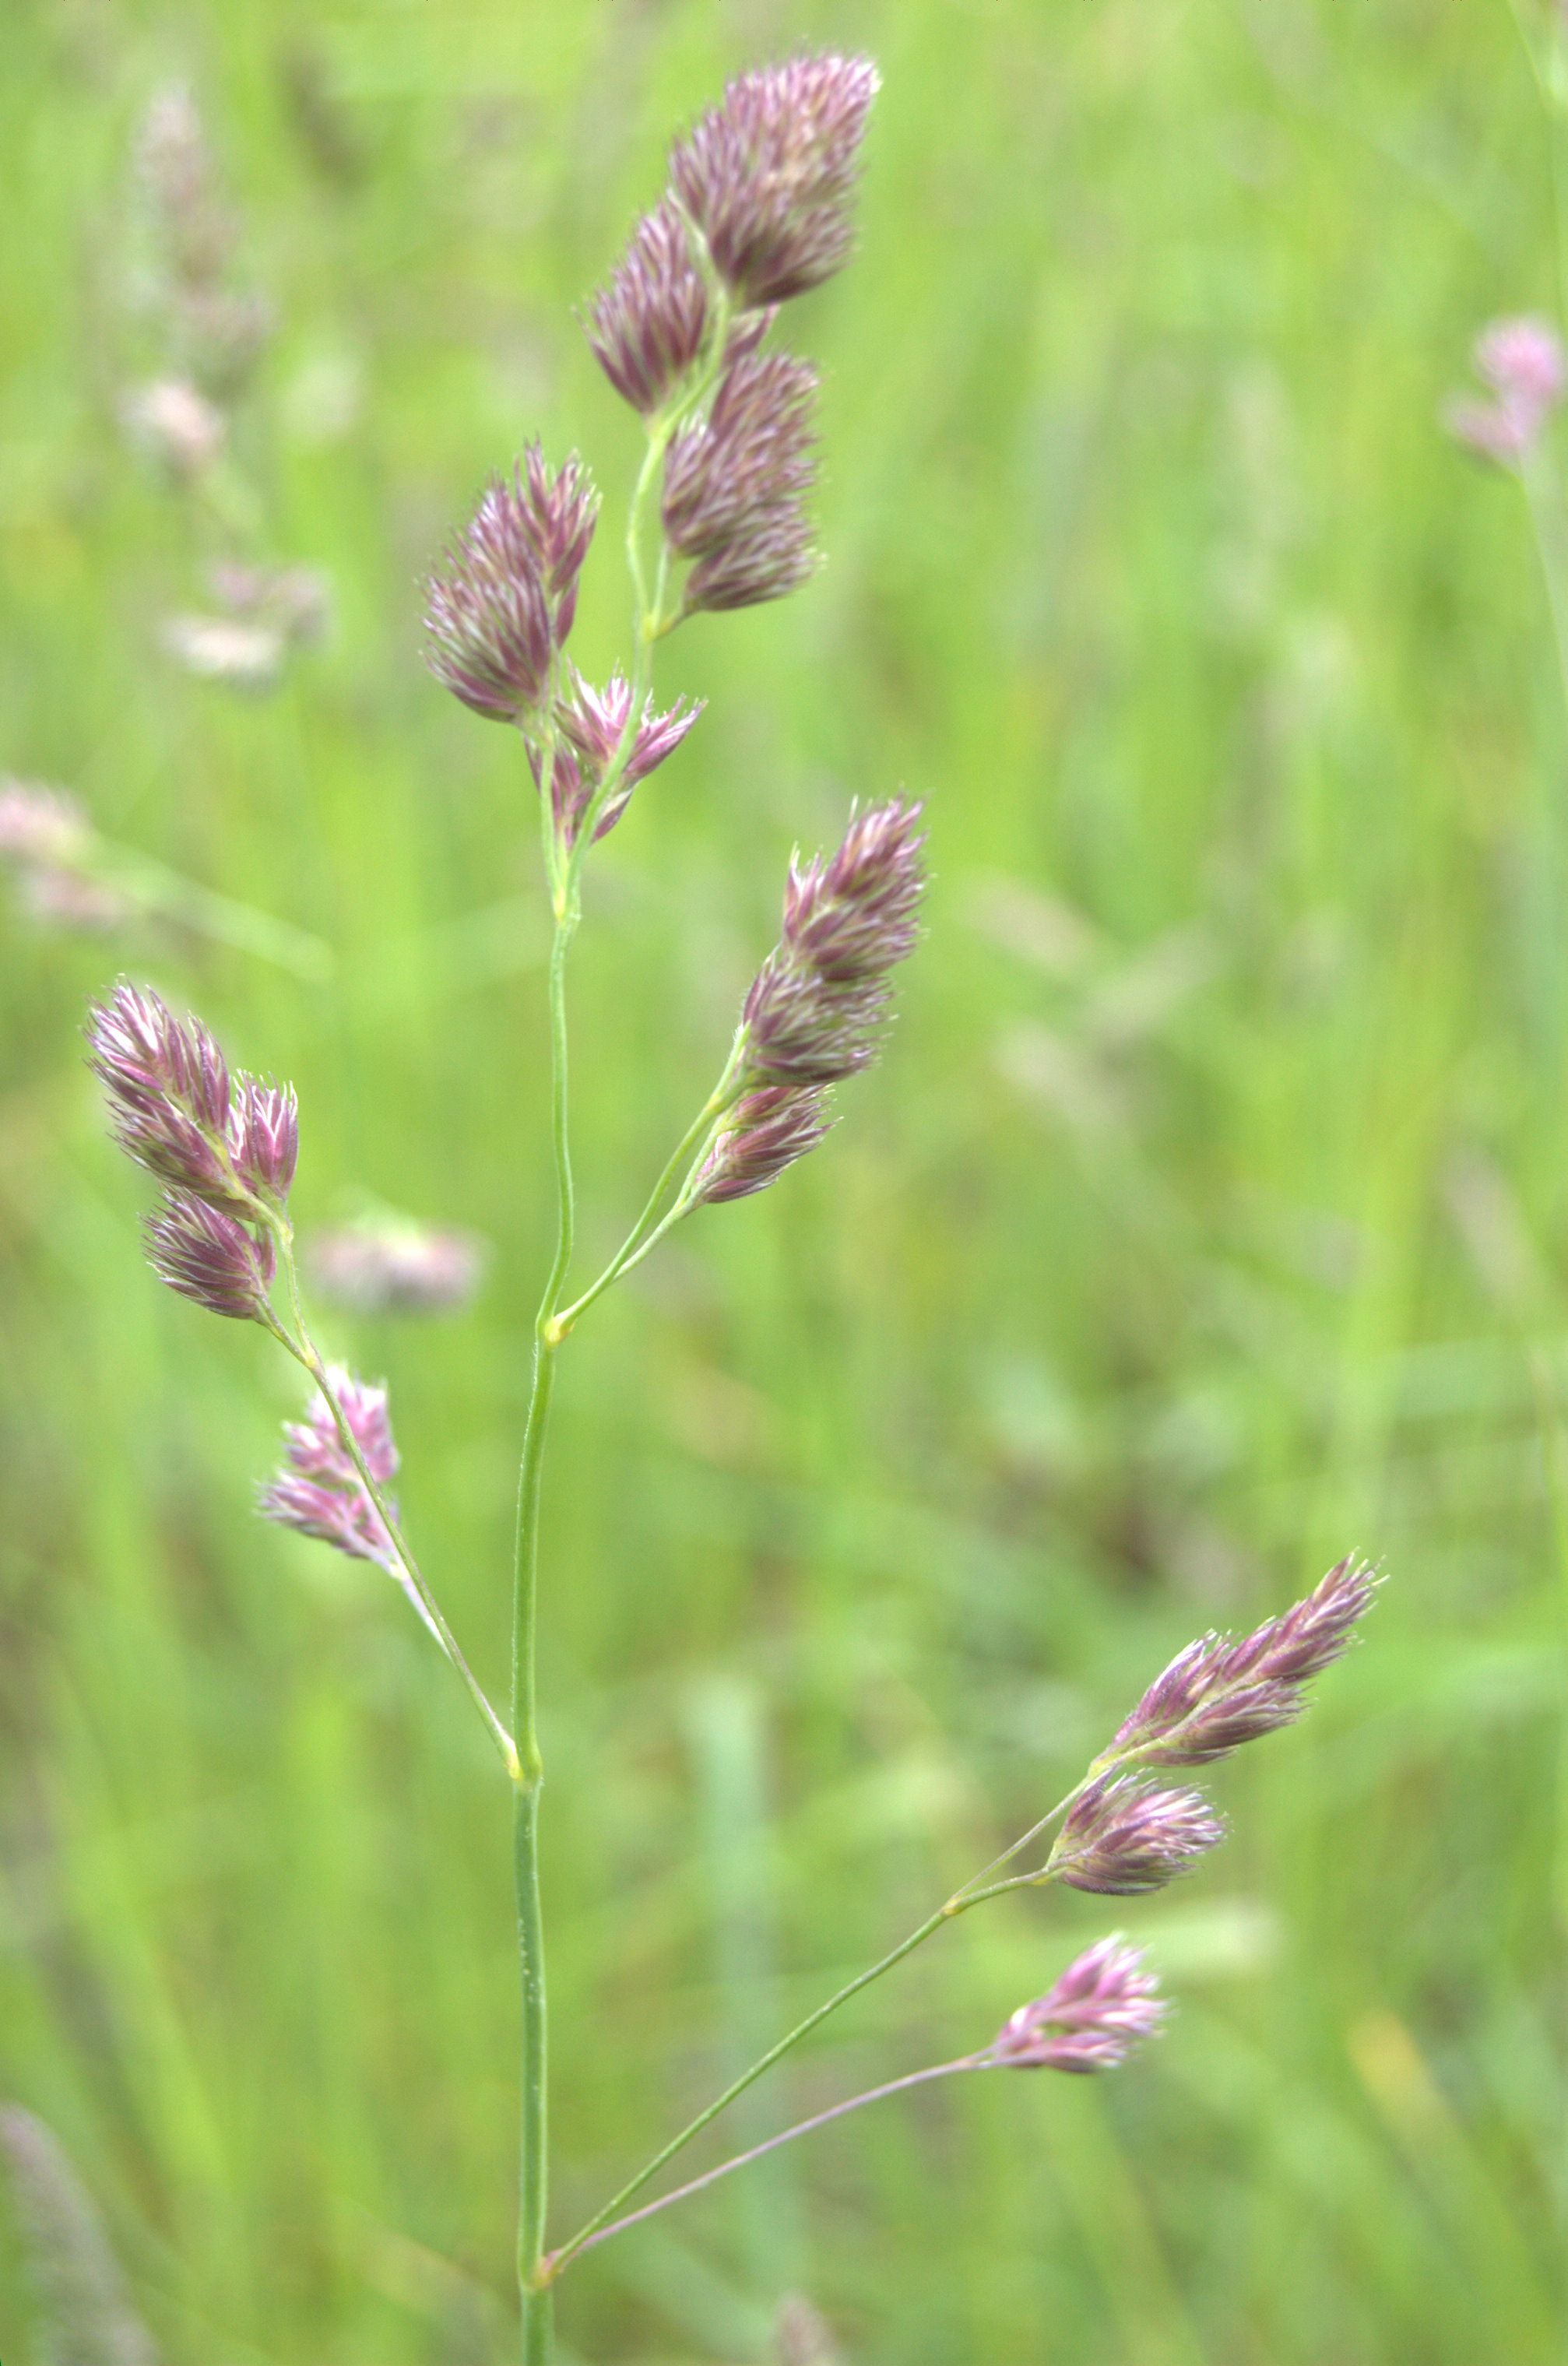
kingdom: Plantae
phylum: Tracheophyta
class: Liliopsida
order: Poales
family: Poaceae
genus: Dactylis
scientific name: Dactylis glomerata
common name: Orchardgrass
